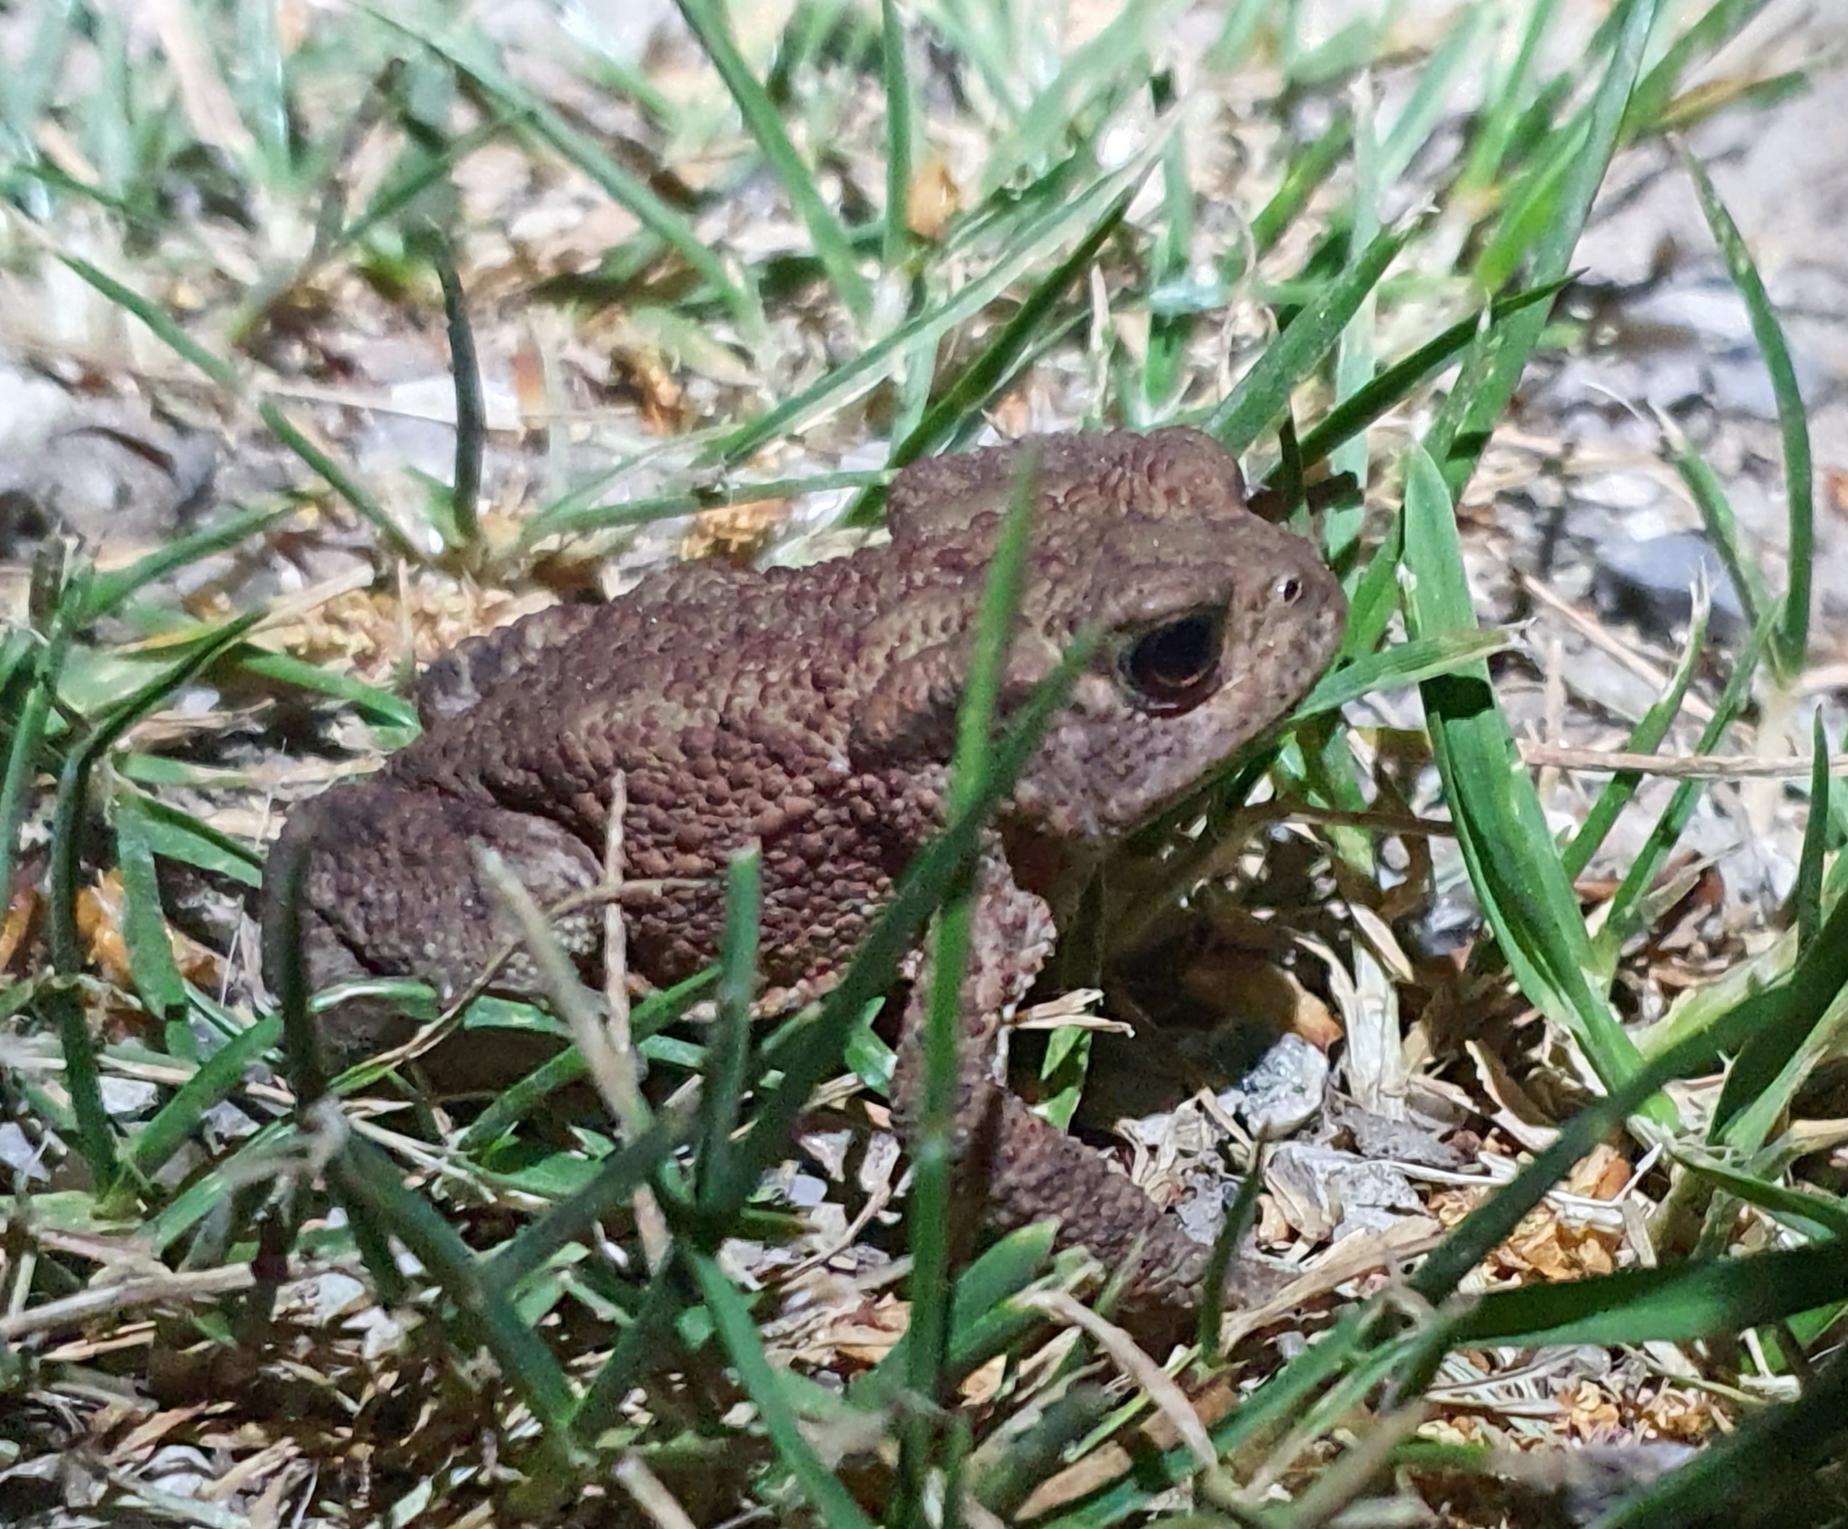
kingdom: Animalia
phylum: Chordata
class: Amphibia
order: Anura
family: Bufonidae
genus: Bufo
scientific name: Bufo bufo
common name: Skrubtudse
